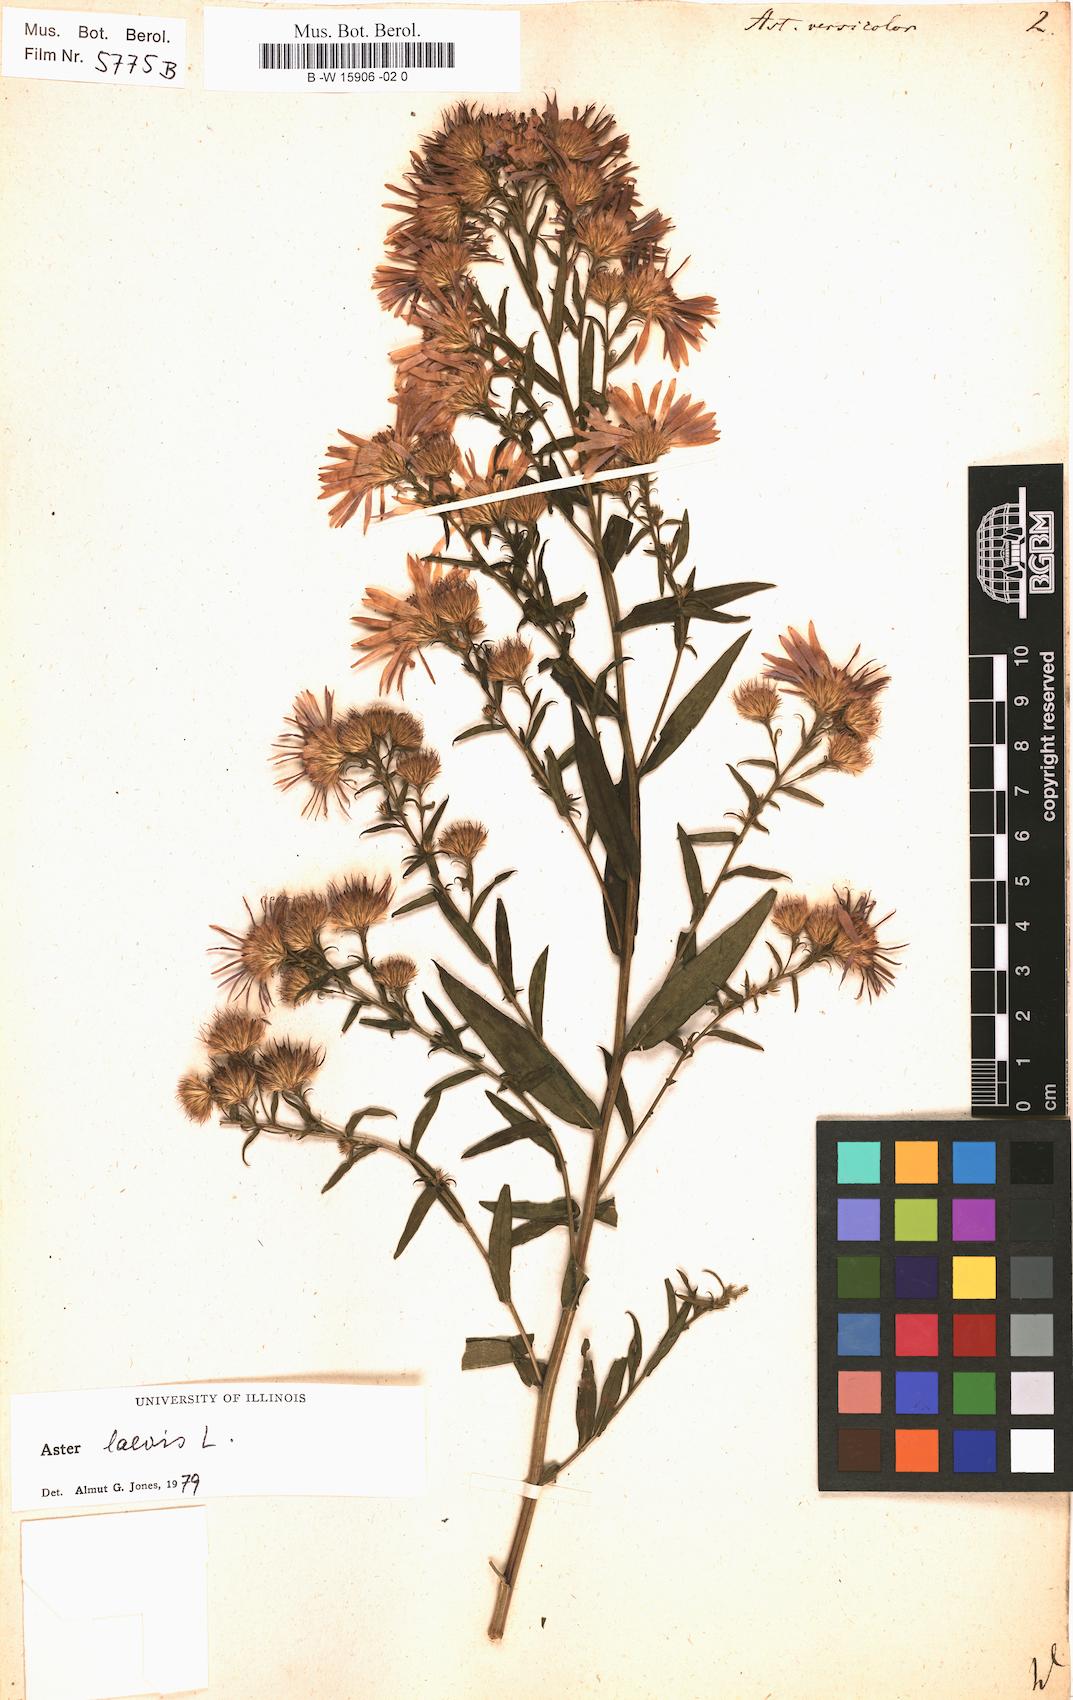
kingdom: Plantae
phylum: Tracheophyta
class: Magnoliopsida
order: Asterales
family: Asteraceae
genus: Aster
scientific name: Aster versicolor
